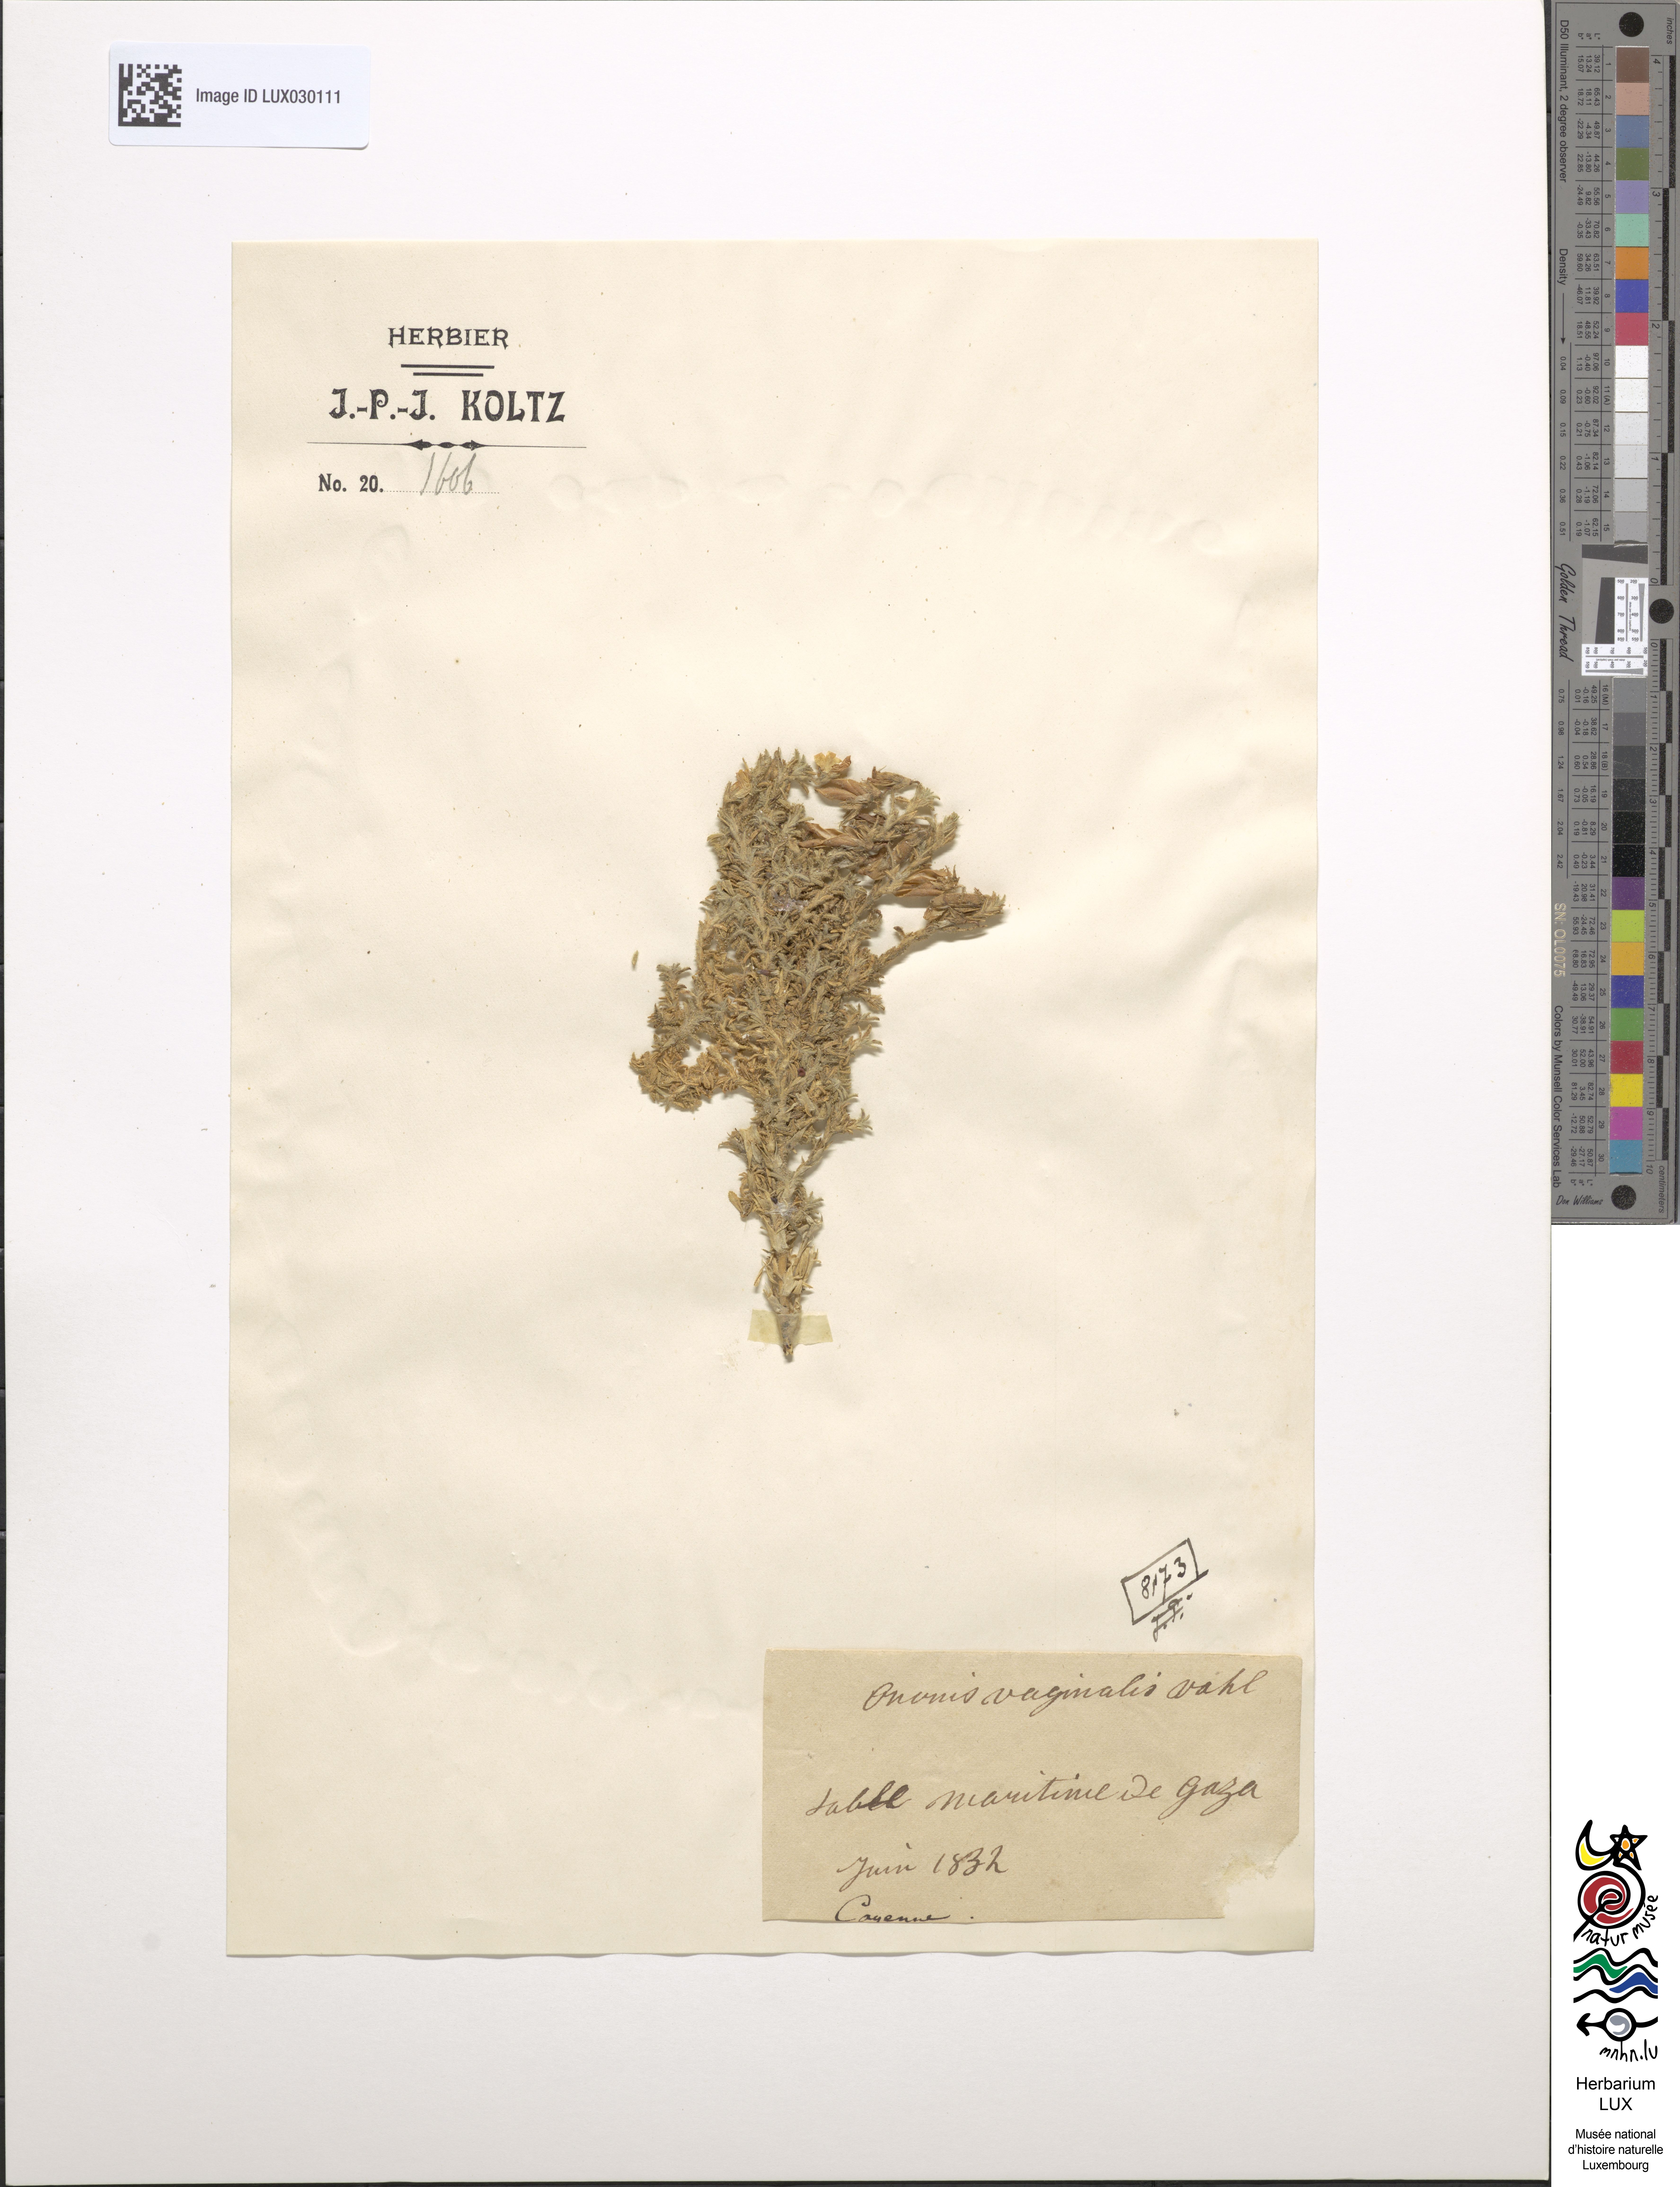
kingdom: Plantae
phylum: Tracheophyta
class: Magnoliopsida
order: Fabales
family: Fabaceae
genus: Ononis
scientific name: Ononis vaginalis
